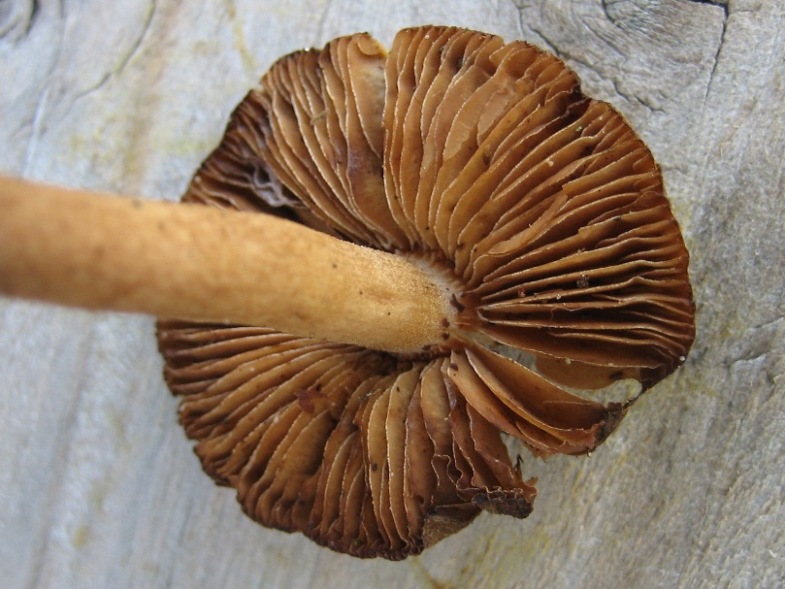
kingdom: Fungi
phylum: Basidiomycota
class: Agaricomycetes
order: Agaricales
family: Inocybaceae
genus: Inocybe
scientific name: Inocybe stellatospora
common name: spidsskællet trævlhat
